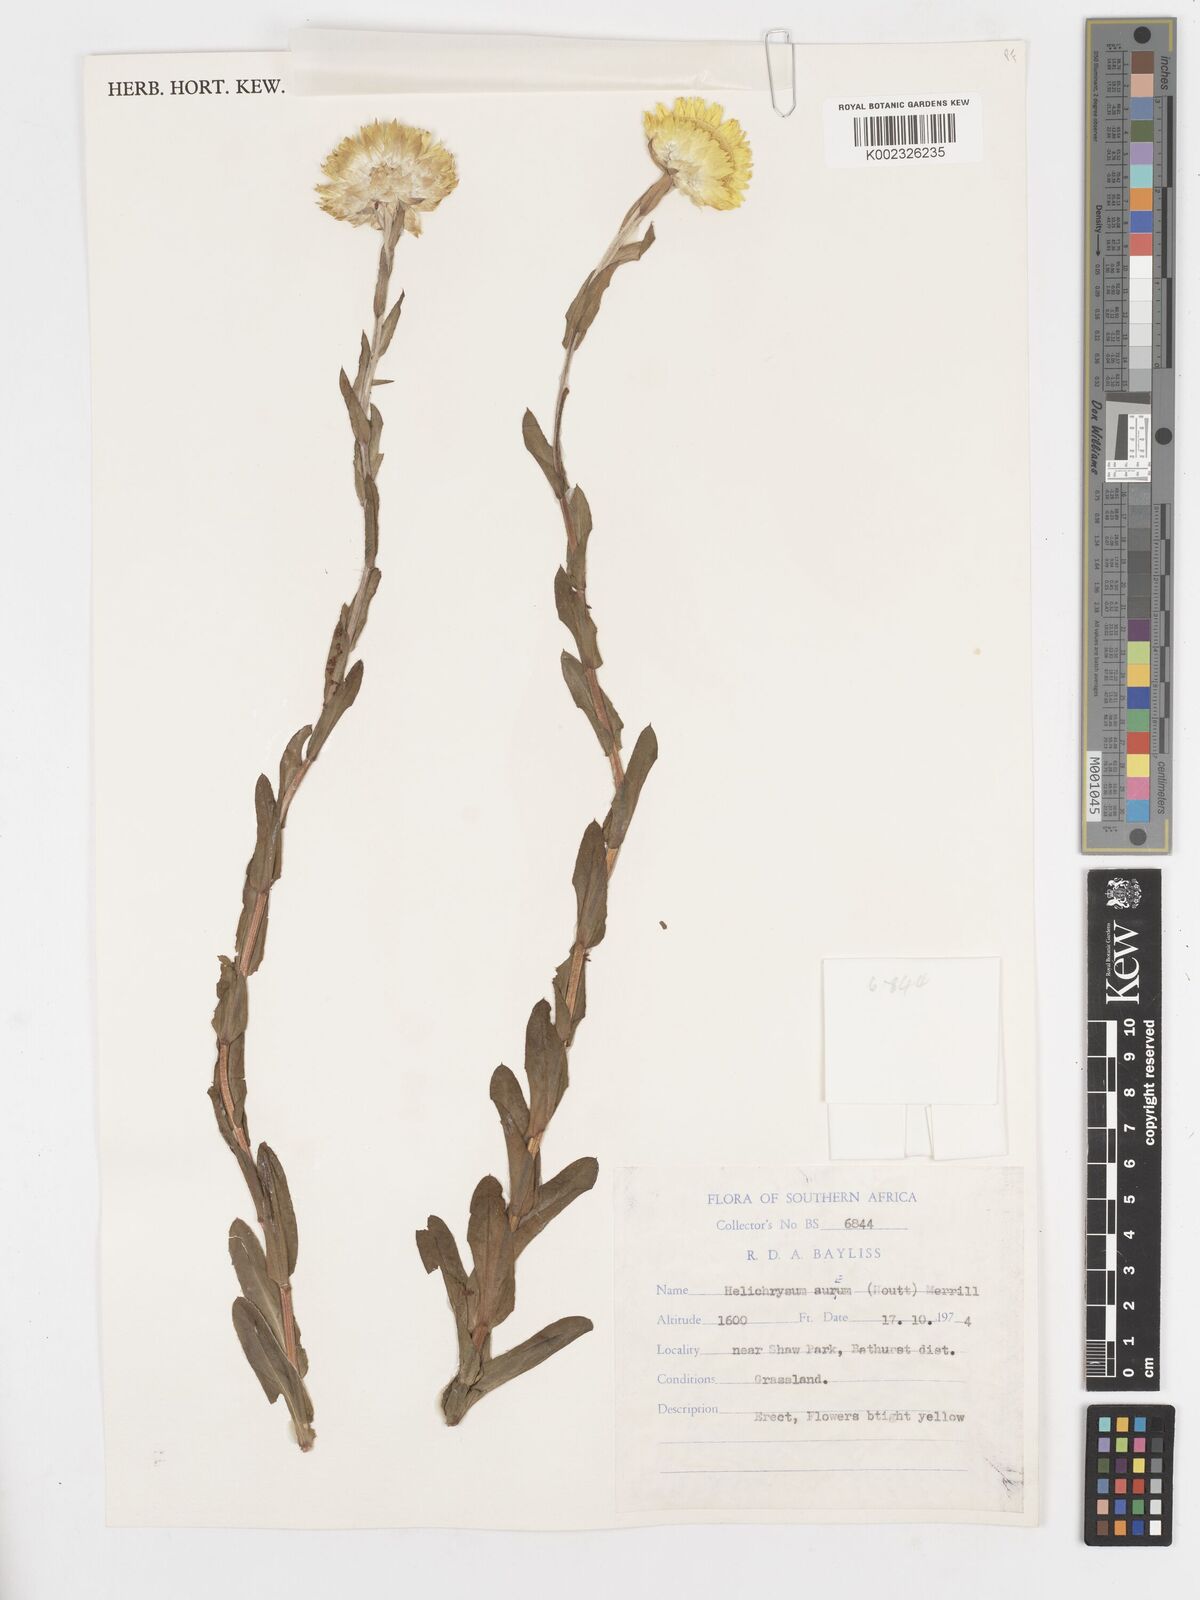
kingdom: Plantae
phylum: Tracheophyta
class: Magnoliopsida
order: Asterales
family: Asteraceae
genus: Helichrysum
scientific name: Helichrysum aureum
